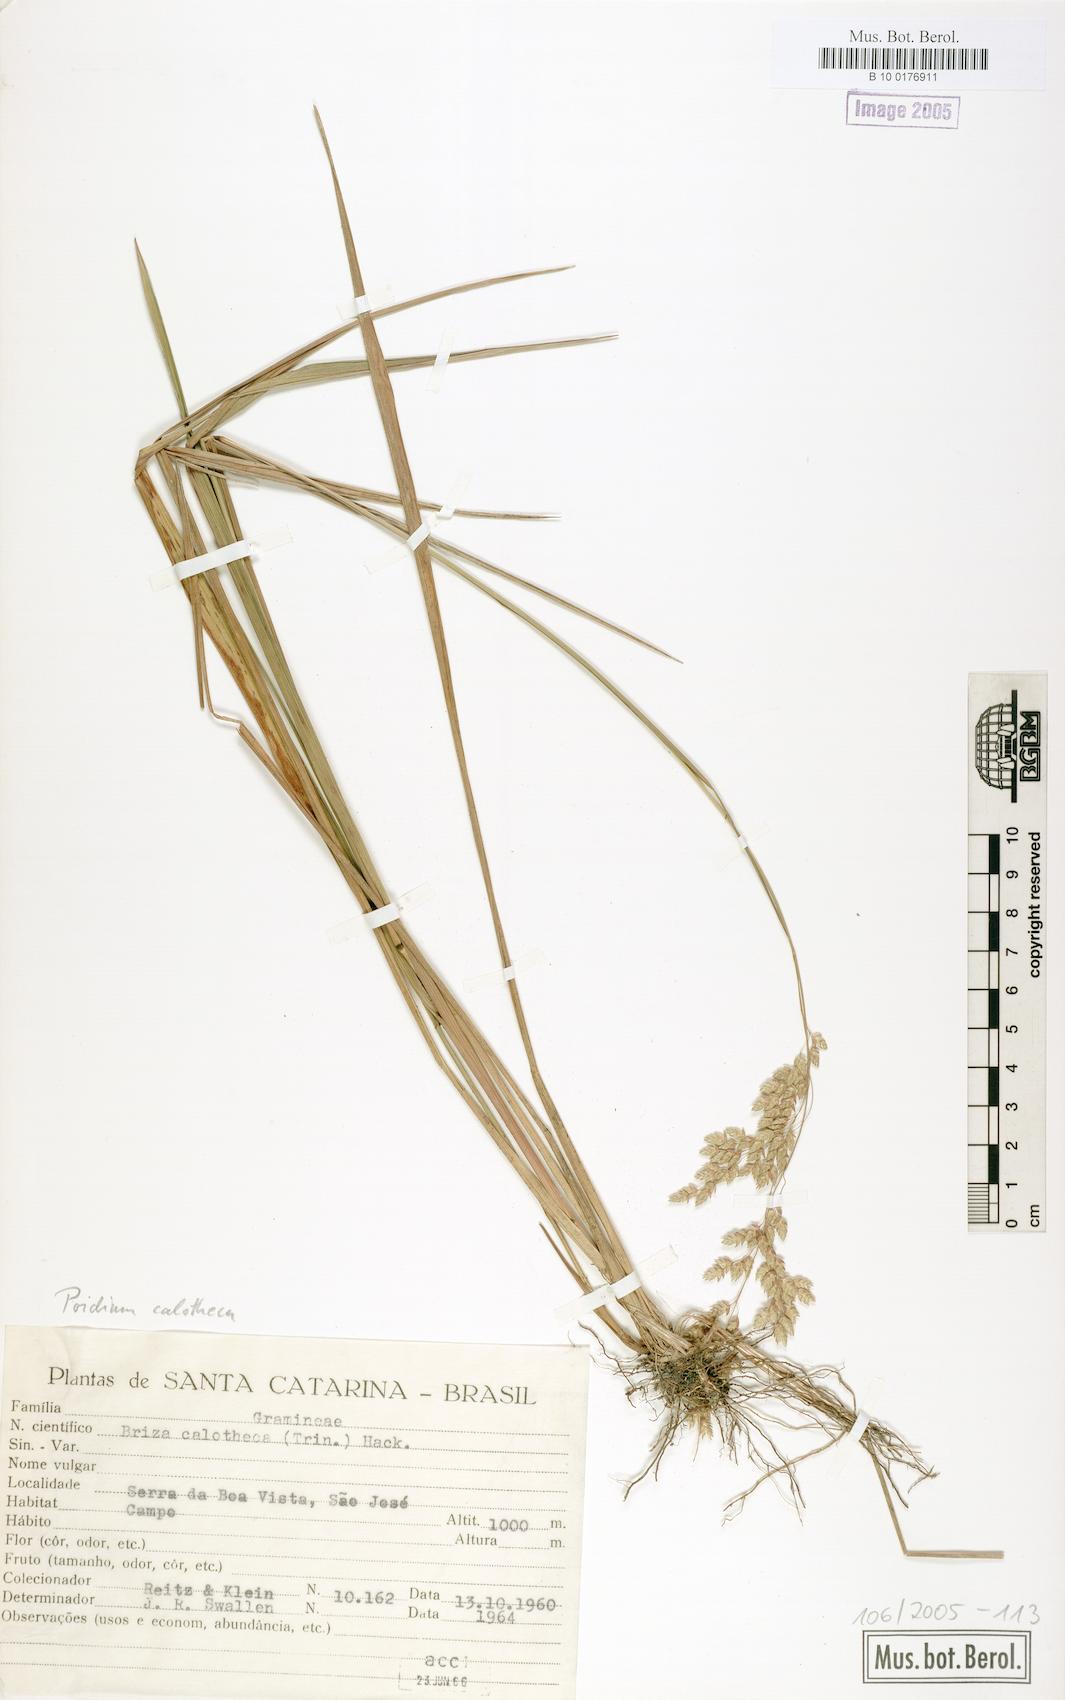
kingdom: Plantae
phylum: Tracheophyta
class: Liliopsida
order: Poales
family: Poaceae
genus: Poidium
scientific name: Poidium calotheca
